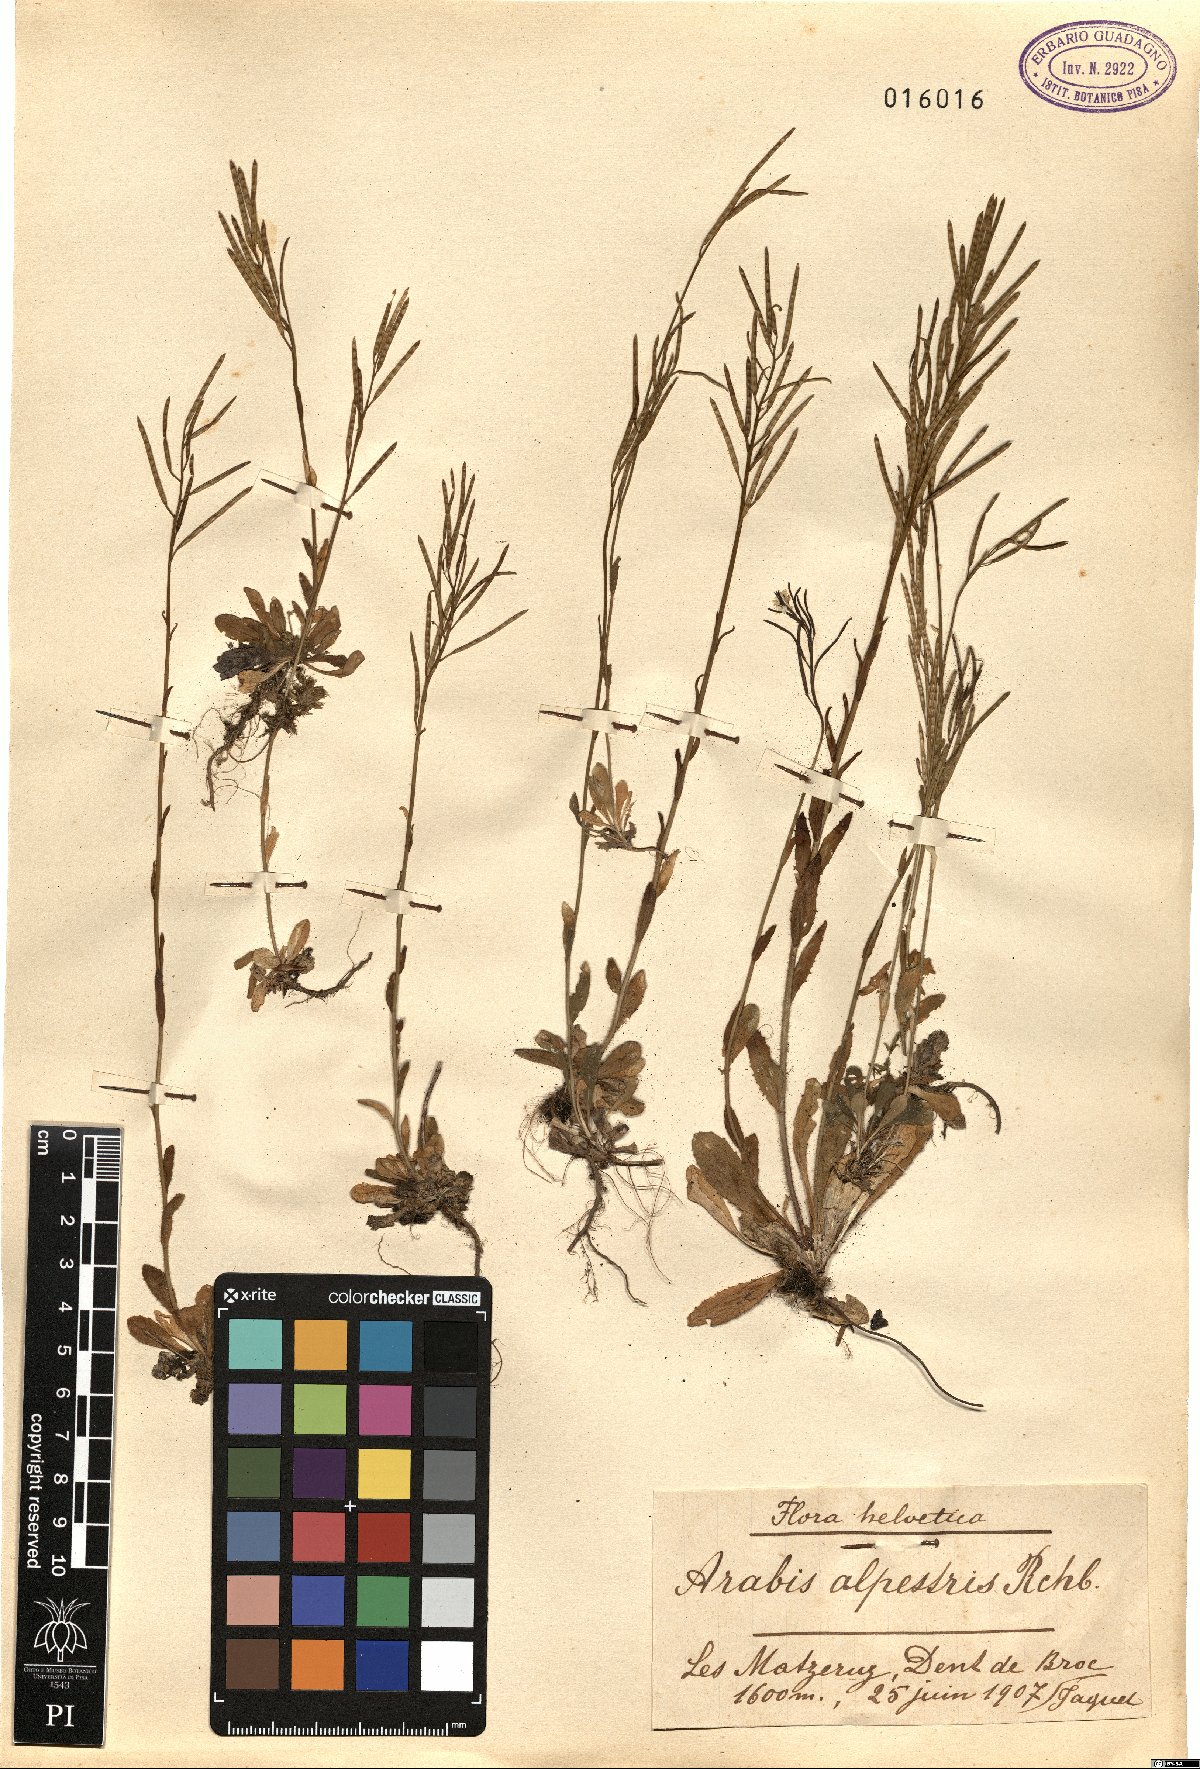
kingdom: Plantae
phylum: Tracheophyta
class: Magnoliopsida
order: Brassicales
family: Brassicaceae
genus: Arabis
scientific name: Arabis ciliata
